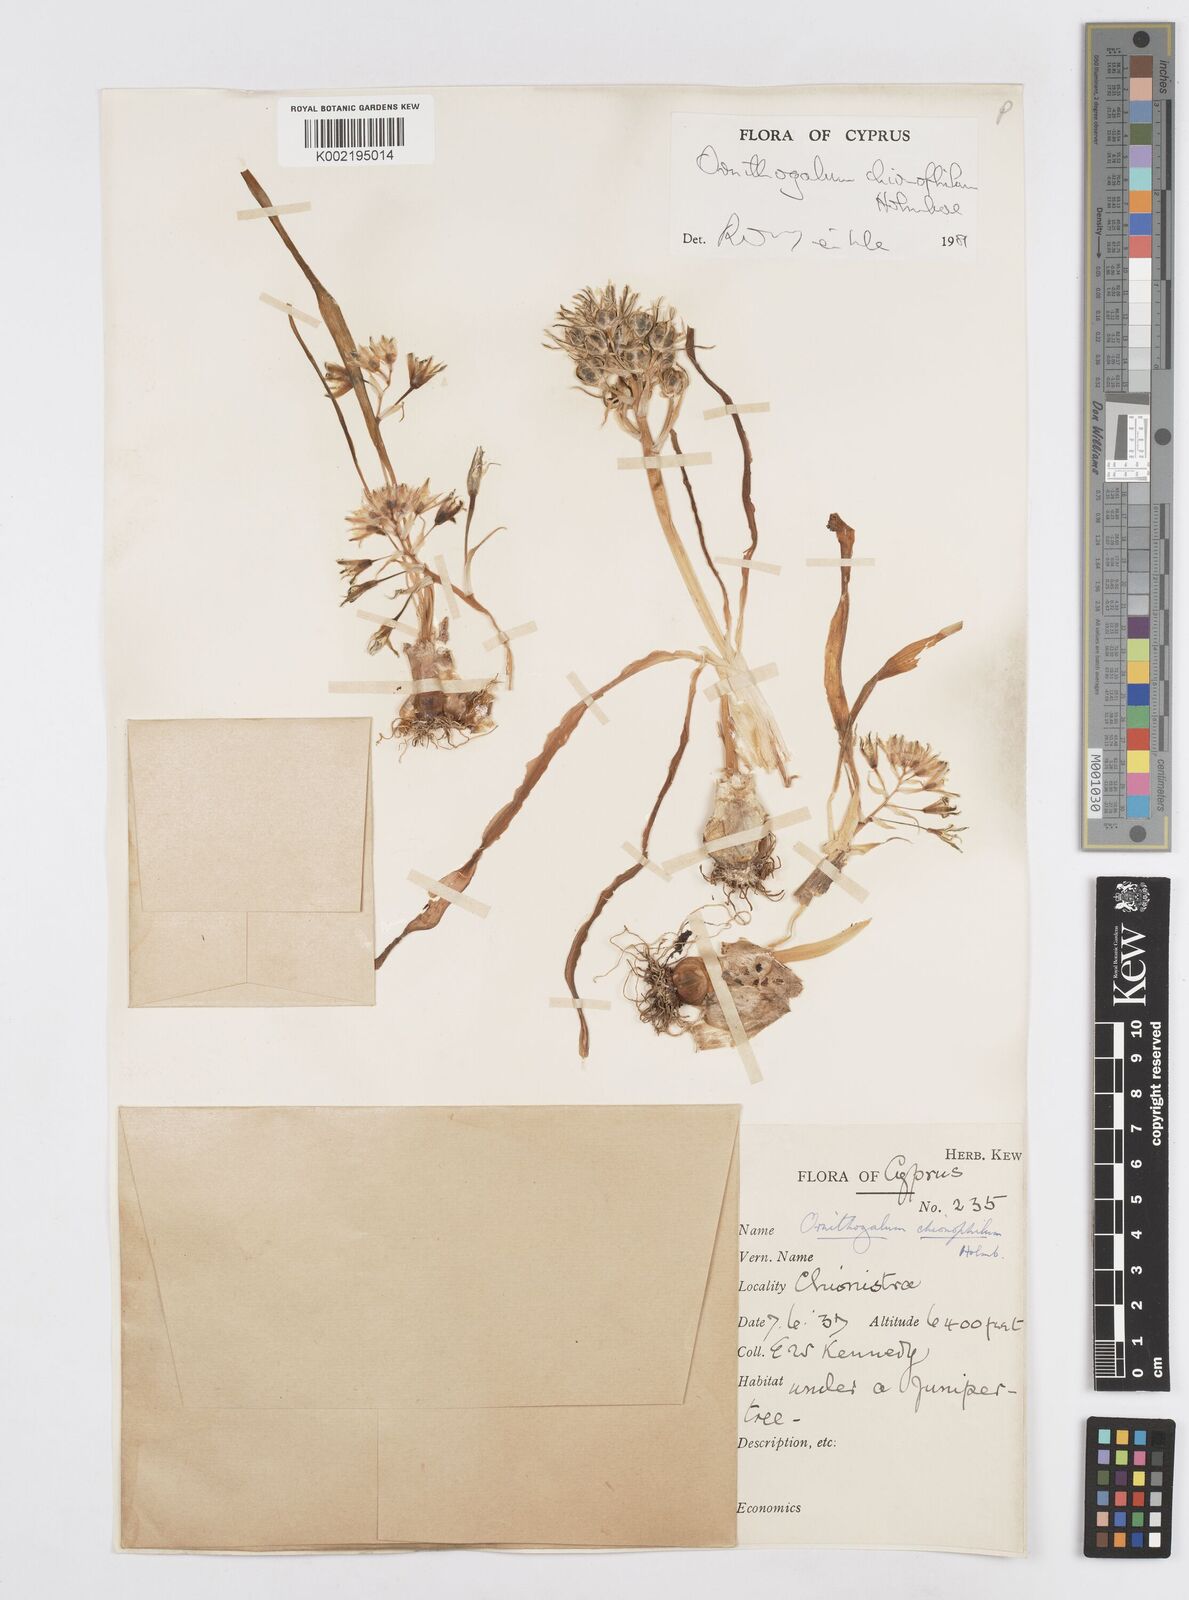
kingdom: Plantae
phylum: Tracheophyta
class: Liliopsida
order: Asparagales
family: Asparagaceae
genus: Ornithogalum
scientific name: Ornithogalum chionophilum
